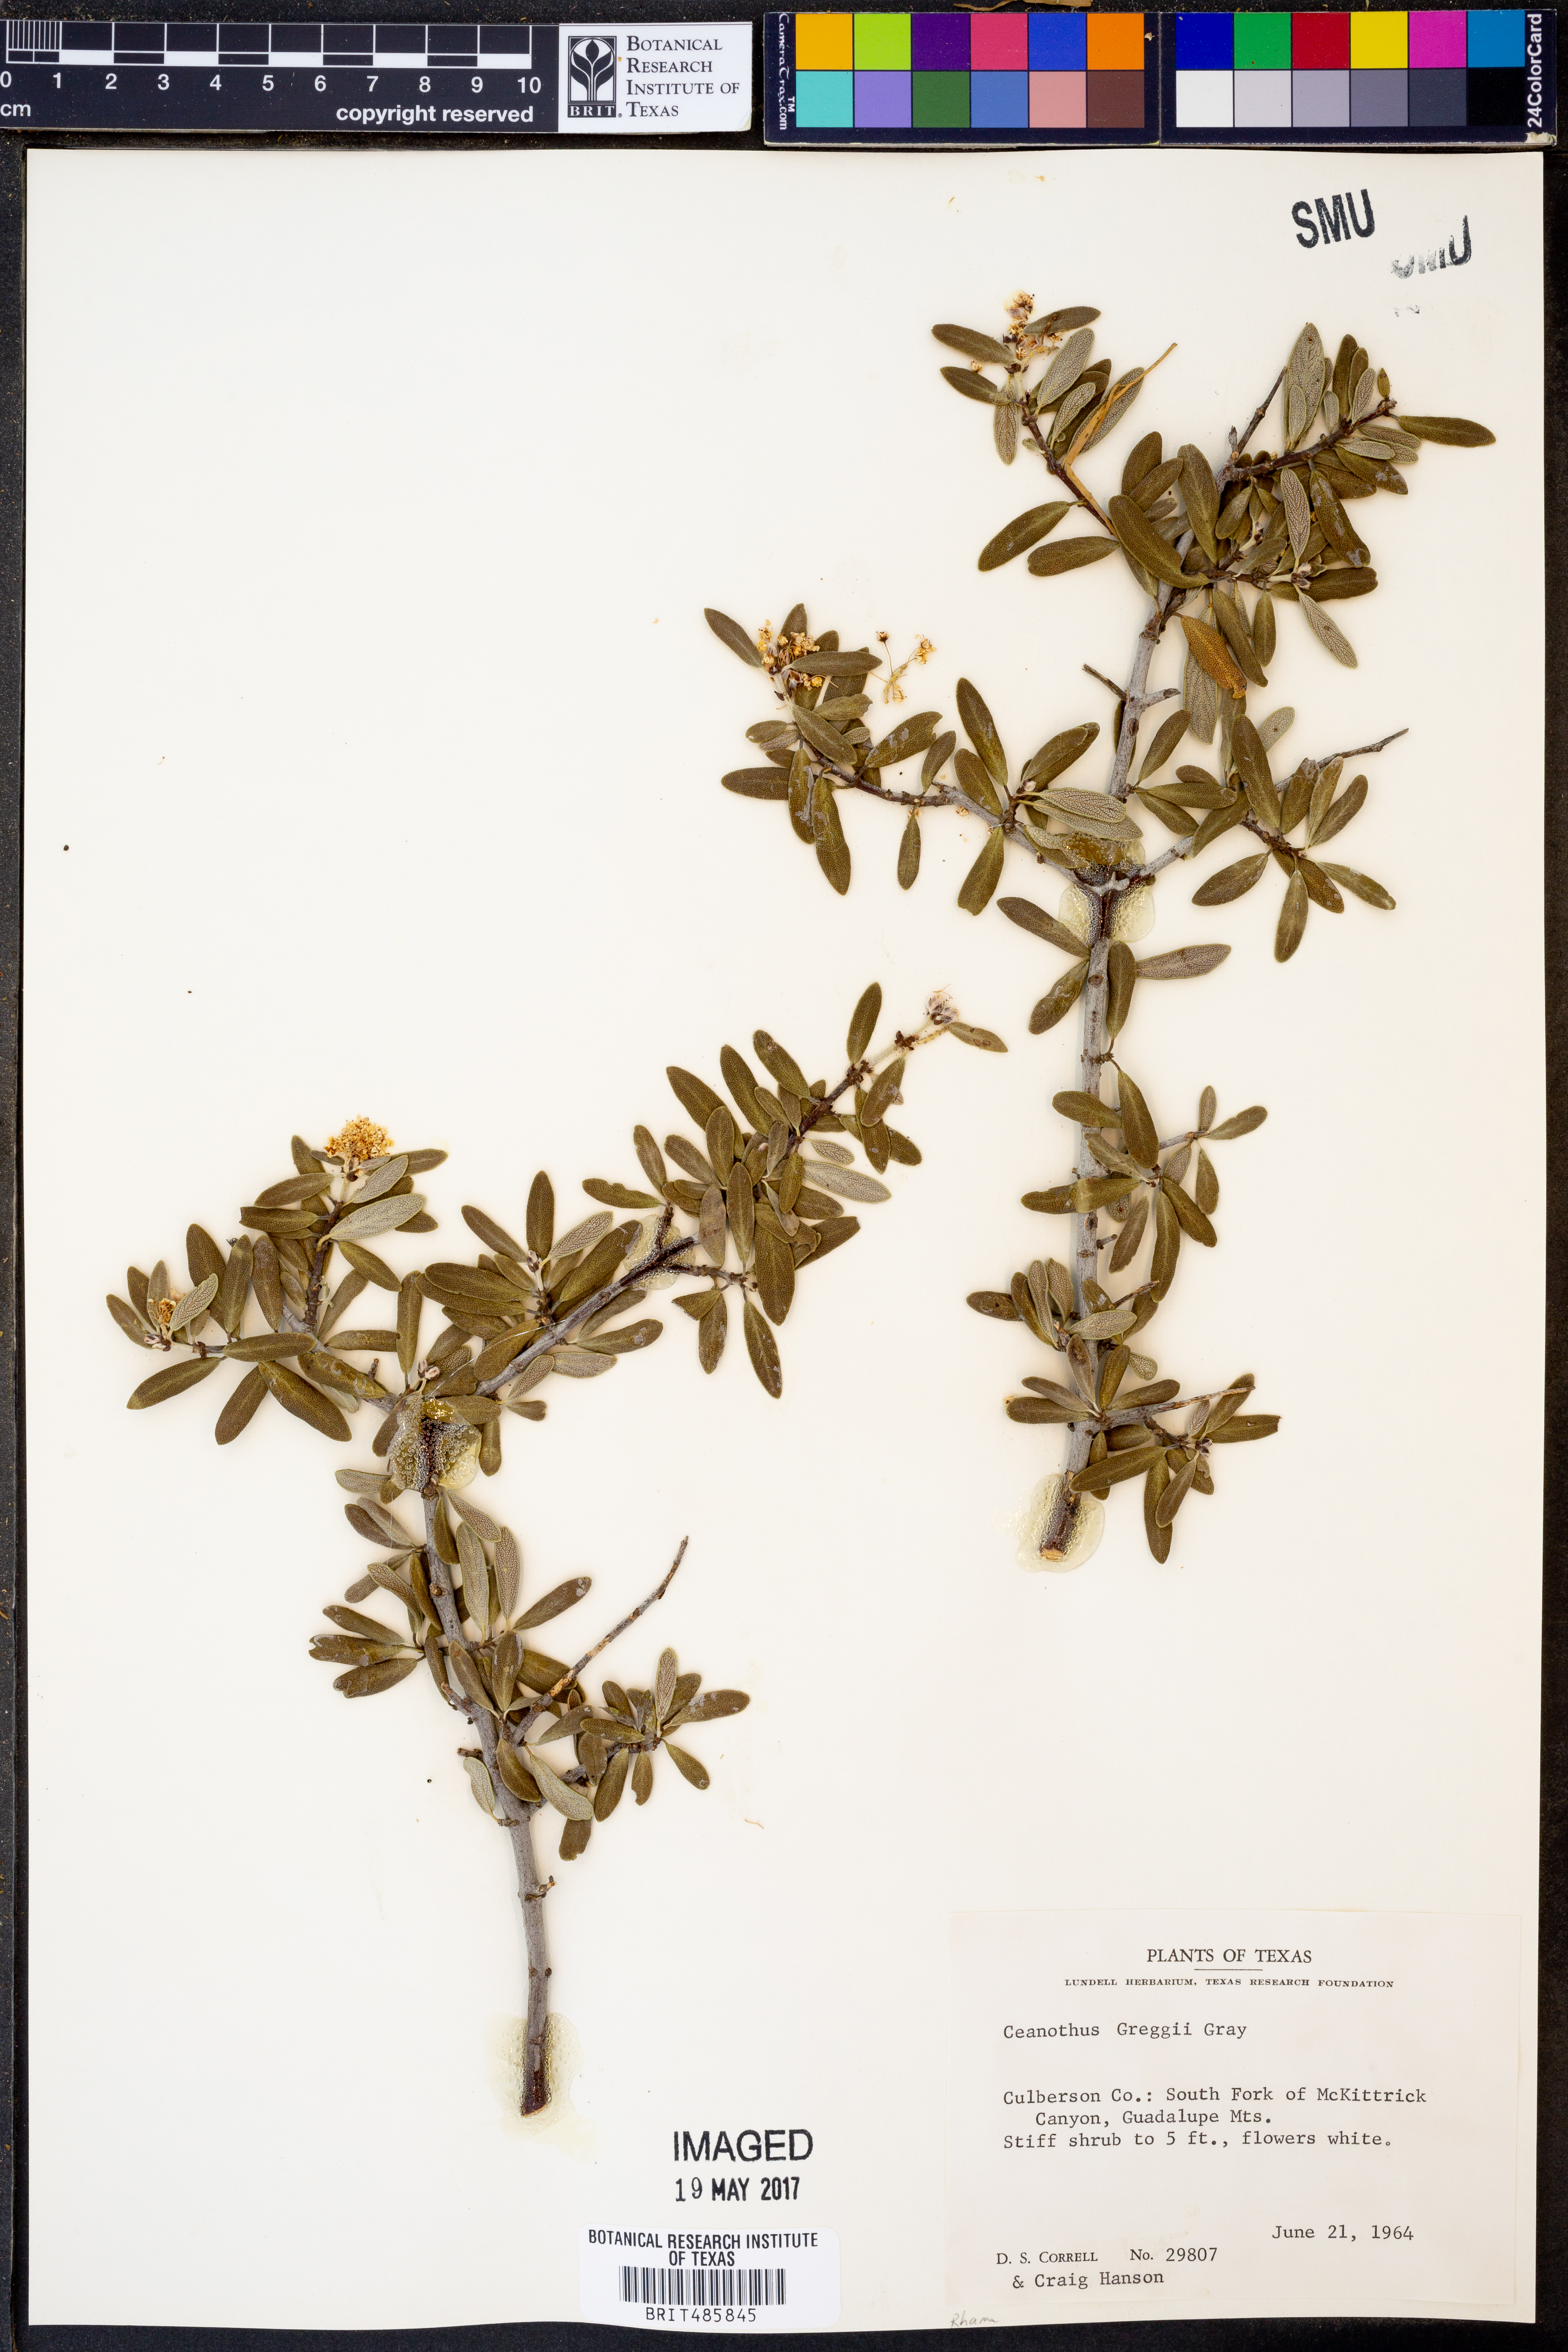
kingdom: Plantae
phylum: Tracheophyta
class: Magnoliopsida
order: Rosales
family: Rhamnaceae
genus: Ceanothus
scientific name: Ceanothus pauciflorus
